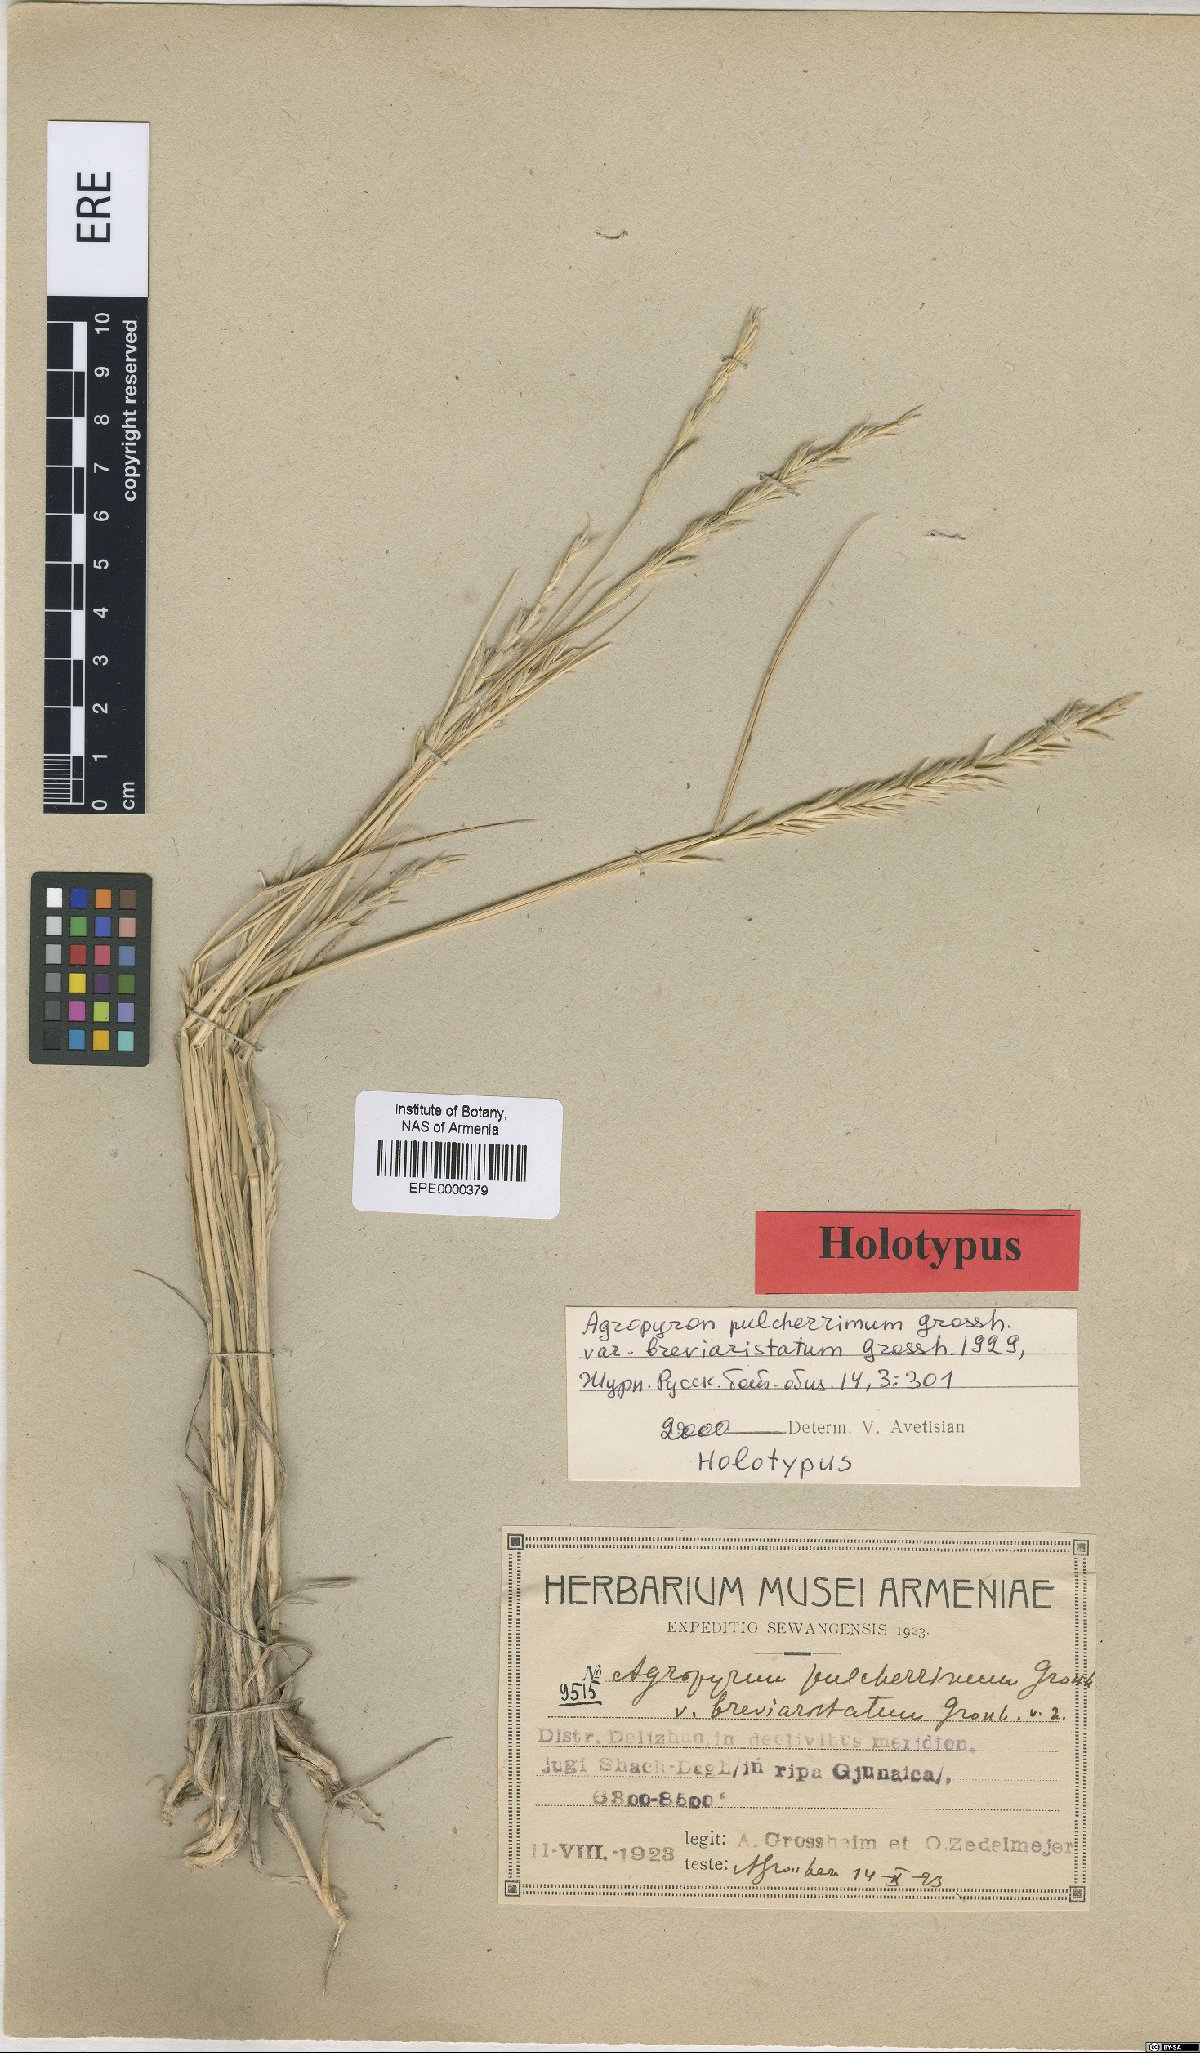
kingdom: Plantae
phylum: Tracheophyta
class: Liliopsida
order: Poales
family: Poaceae
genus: Kengyilia
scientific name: Kengyilia pulcherrima
